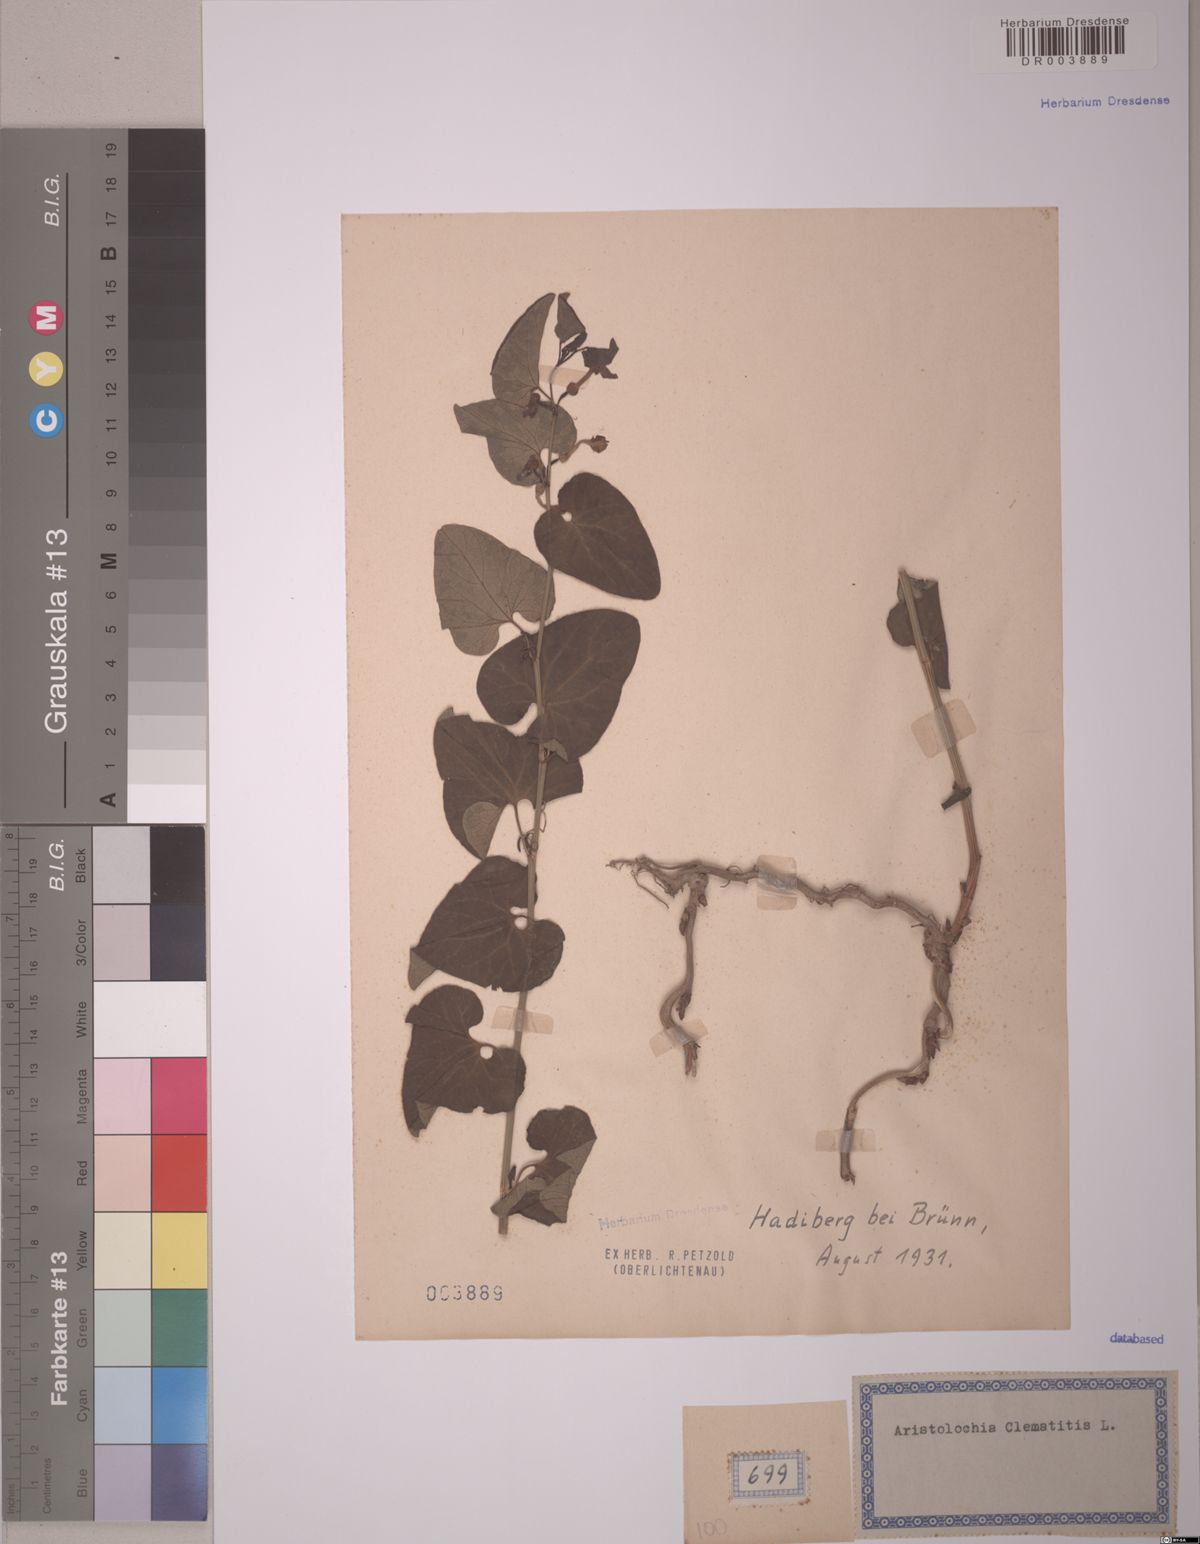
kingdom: Plantae
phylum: Tracheophyta
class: Magnoliopsida
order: Piperales
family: Aristolochiaceae
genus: Aristolochia
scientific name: Aristolochia clematitis
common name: Birthwort
